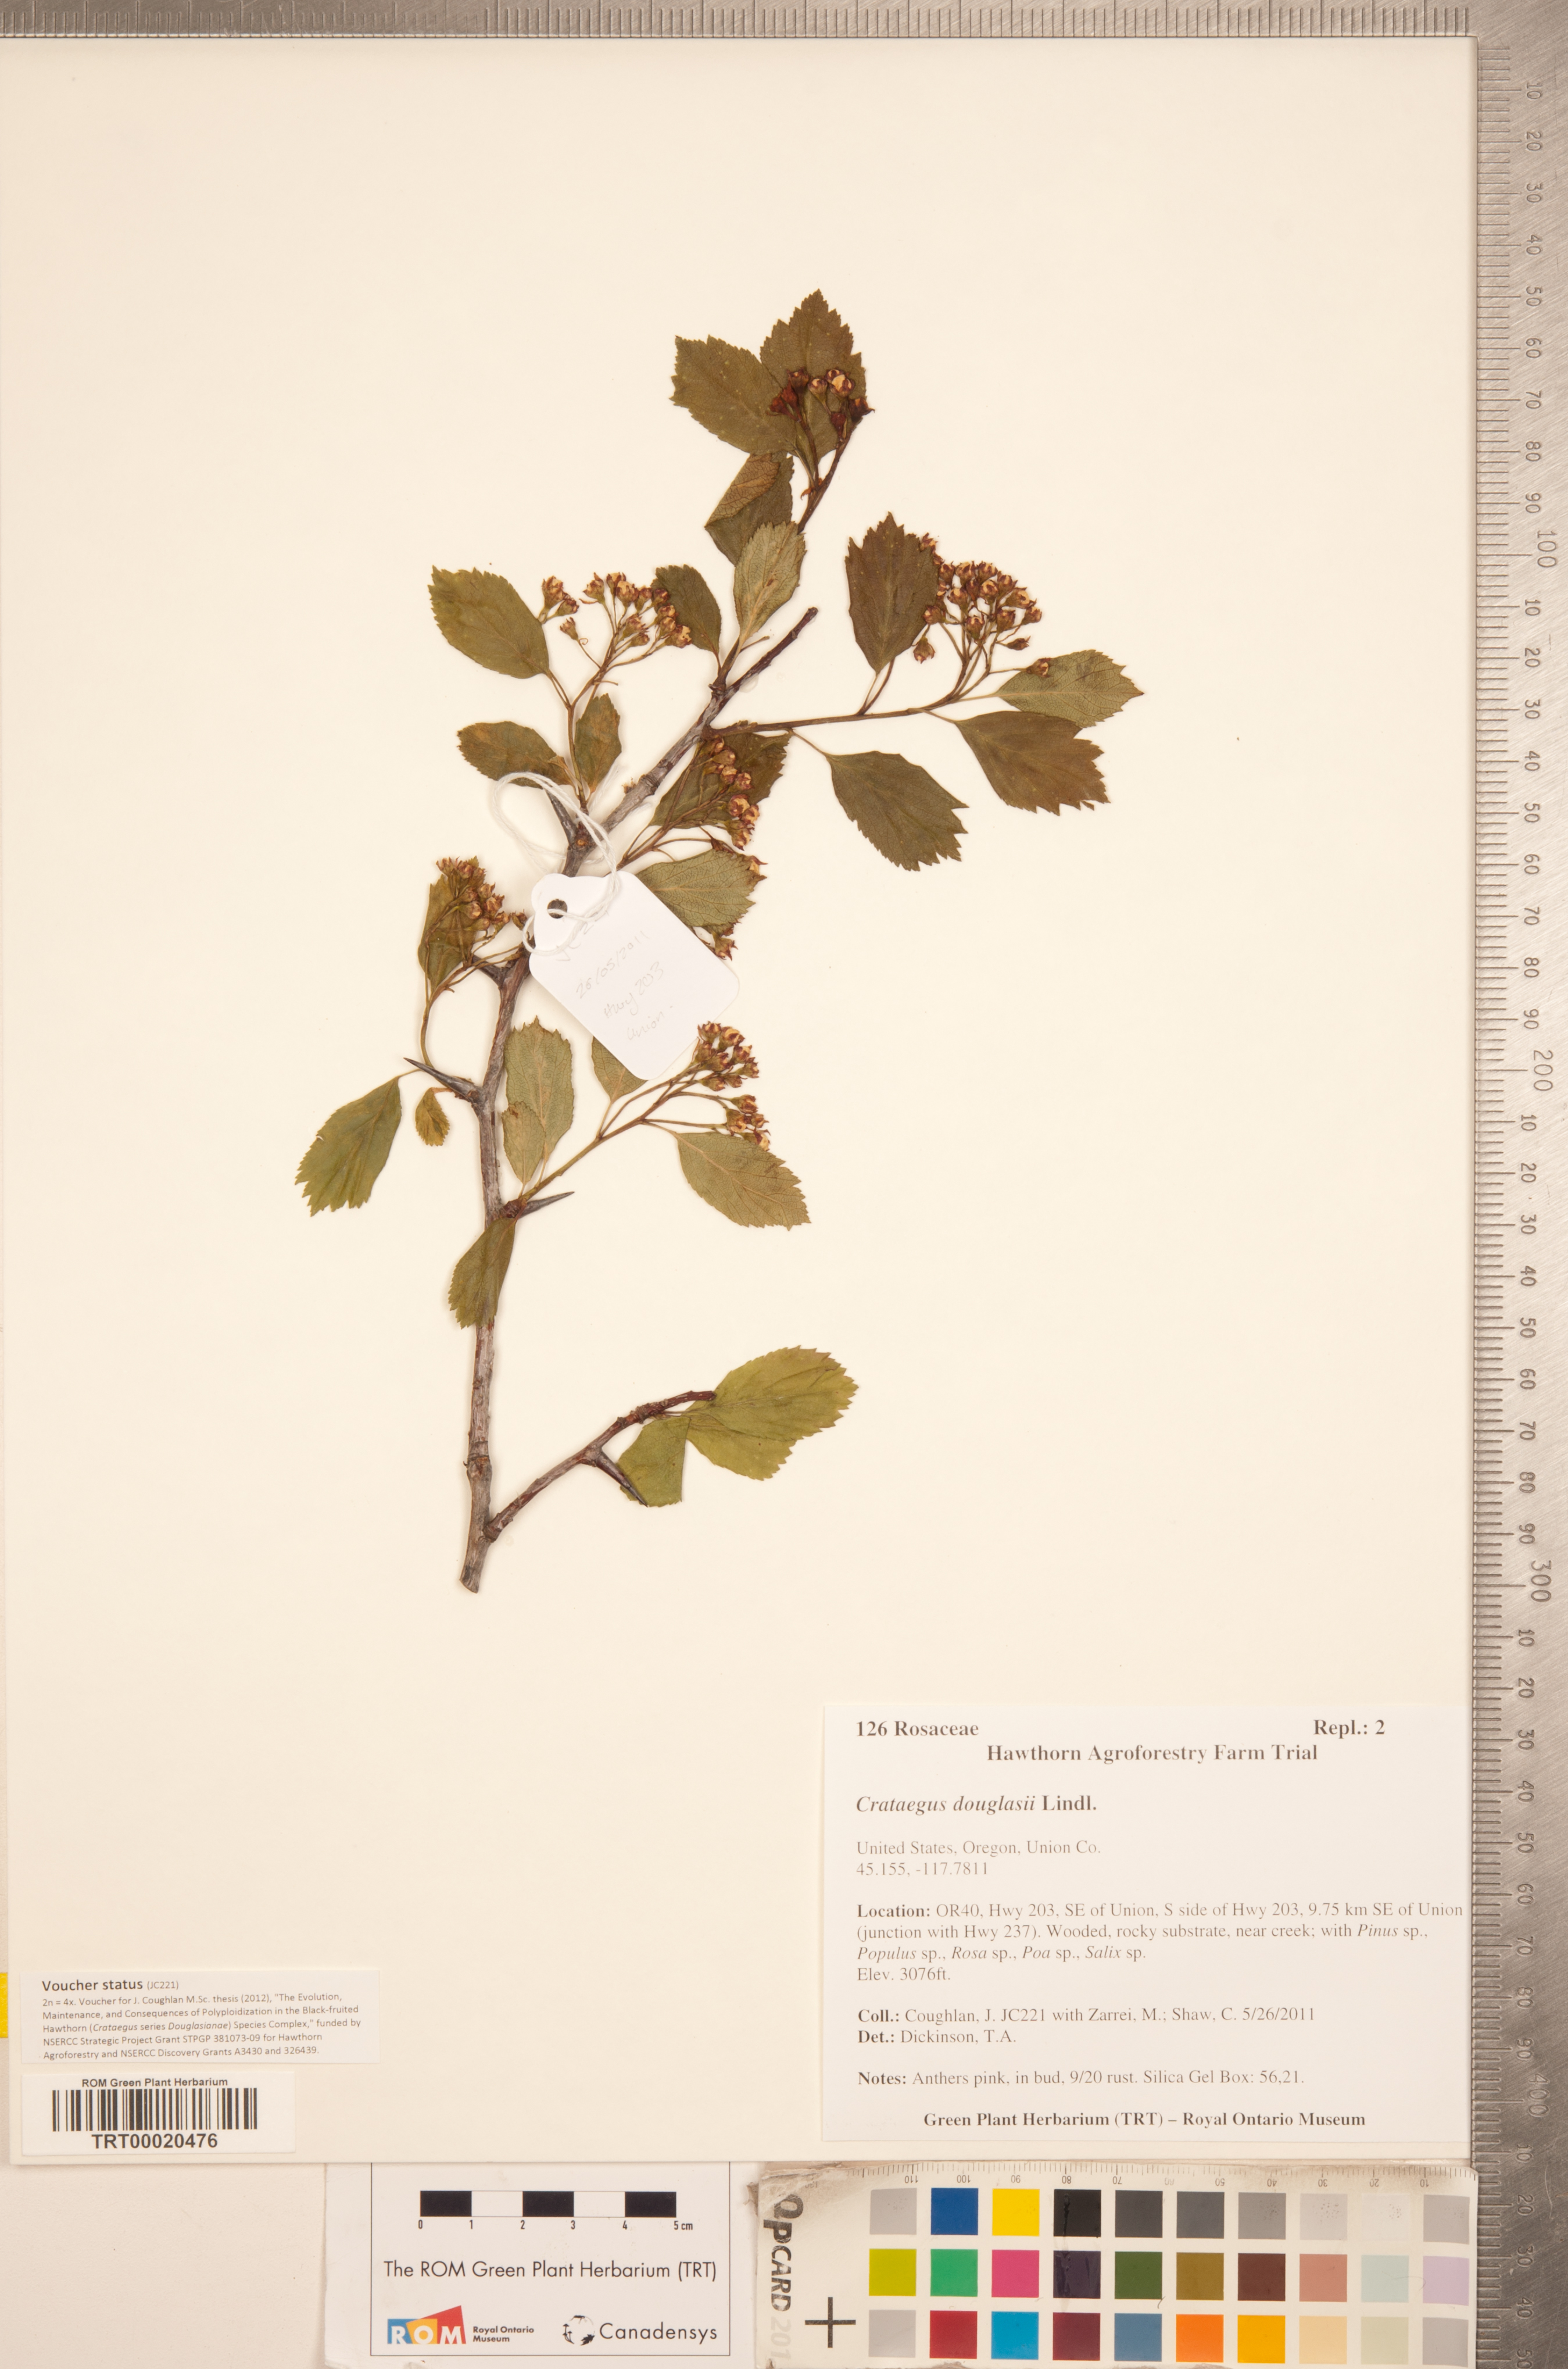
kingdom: Plantae
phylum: Tracheophyta
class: Magnoliopsida
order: Rosales
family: Rosaceae
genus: Crataegus
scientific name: Crataegus douglasii
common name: Black hawthorn
